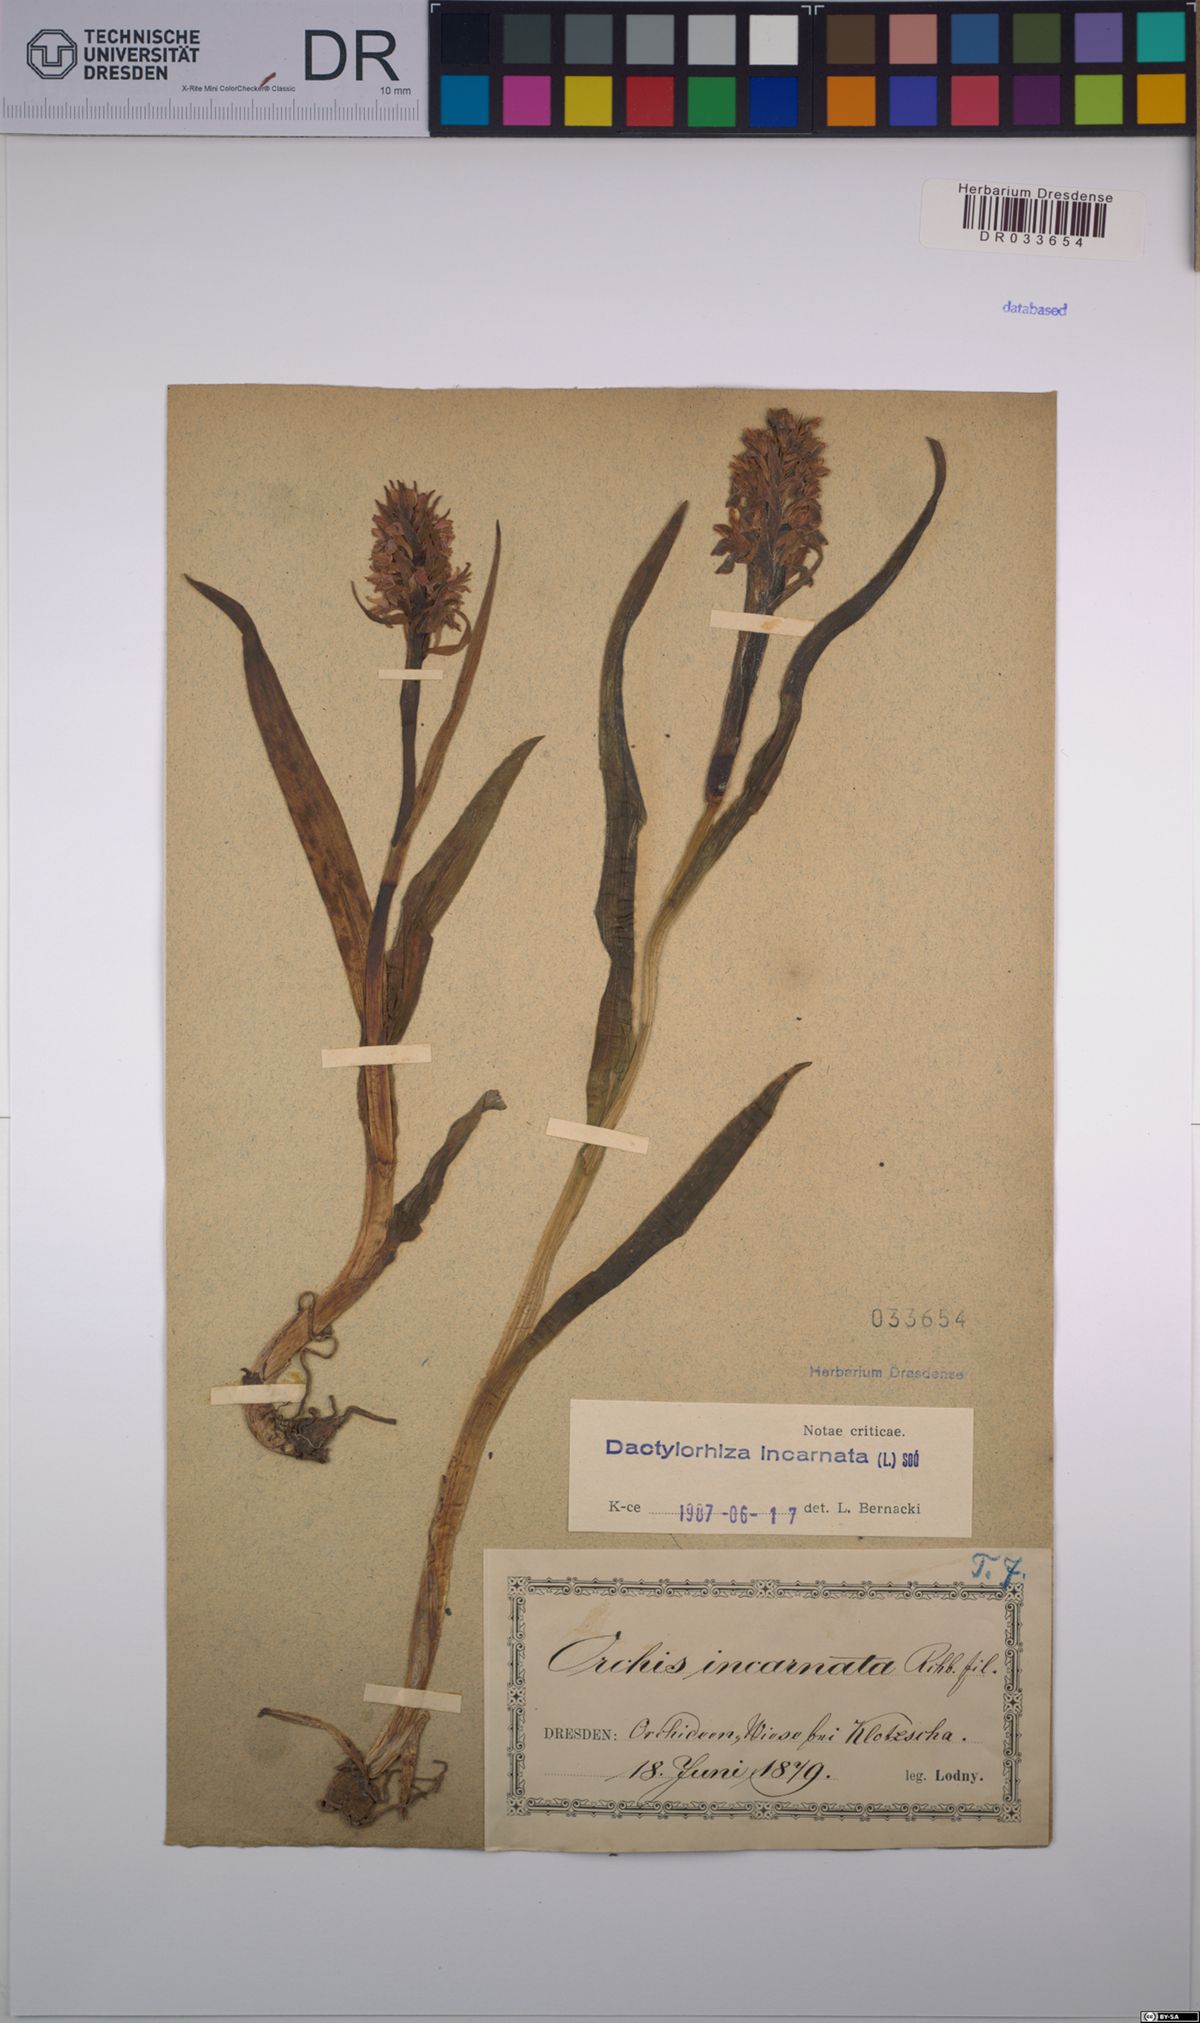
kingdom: Plantae
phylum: Tracheophyta
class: Liliopsida
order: Asparagales
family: Orchidaceae
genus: Dactylorhiza
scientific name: Dactylorhiza incarnata
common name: Early marsh-orchid
